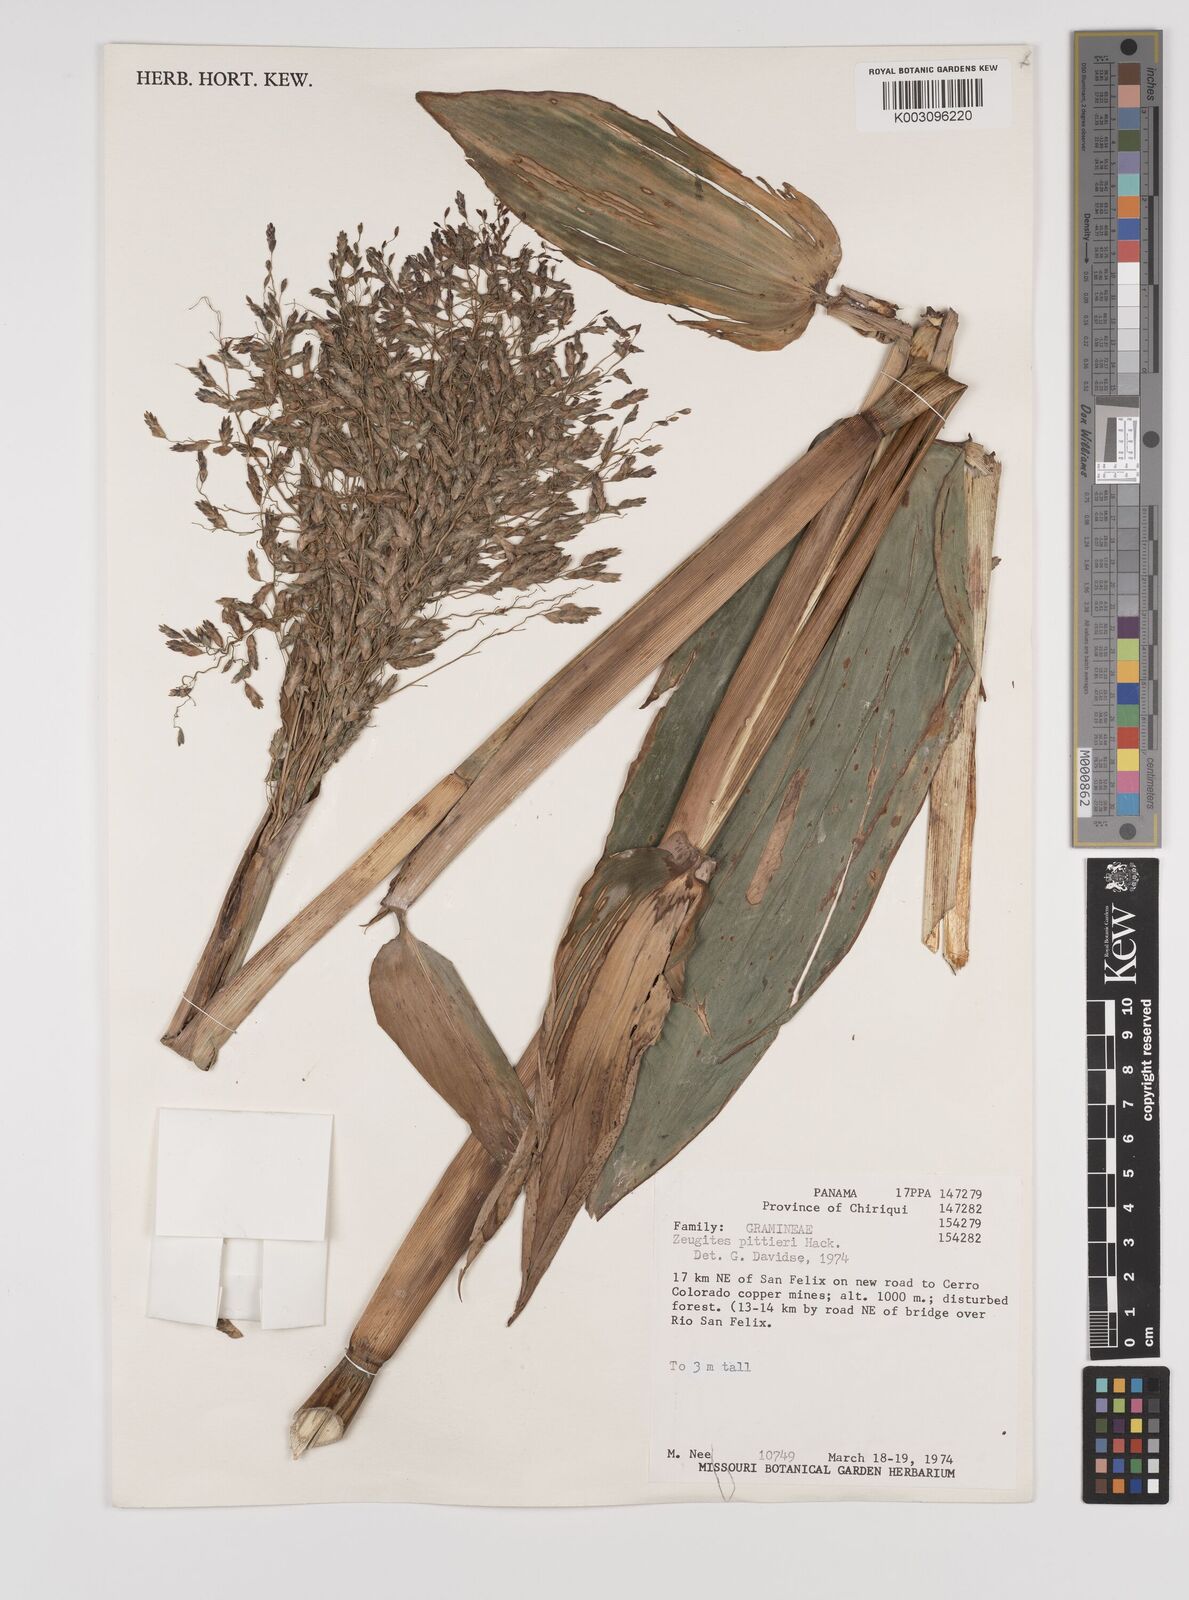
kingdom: Plantae
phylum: Tracheophyta
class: Liliopsida
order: Poales
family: Poaceae
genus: Zeugites
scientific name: Zeugites pittieri
